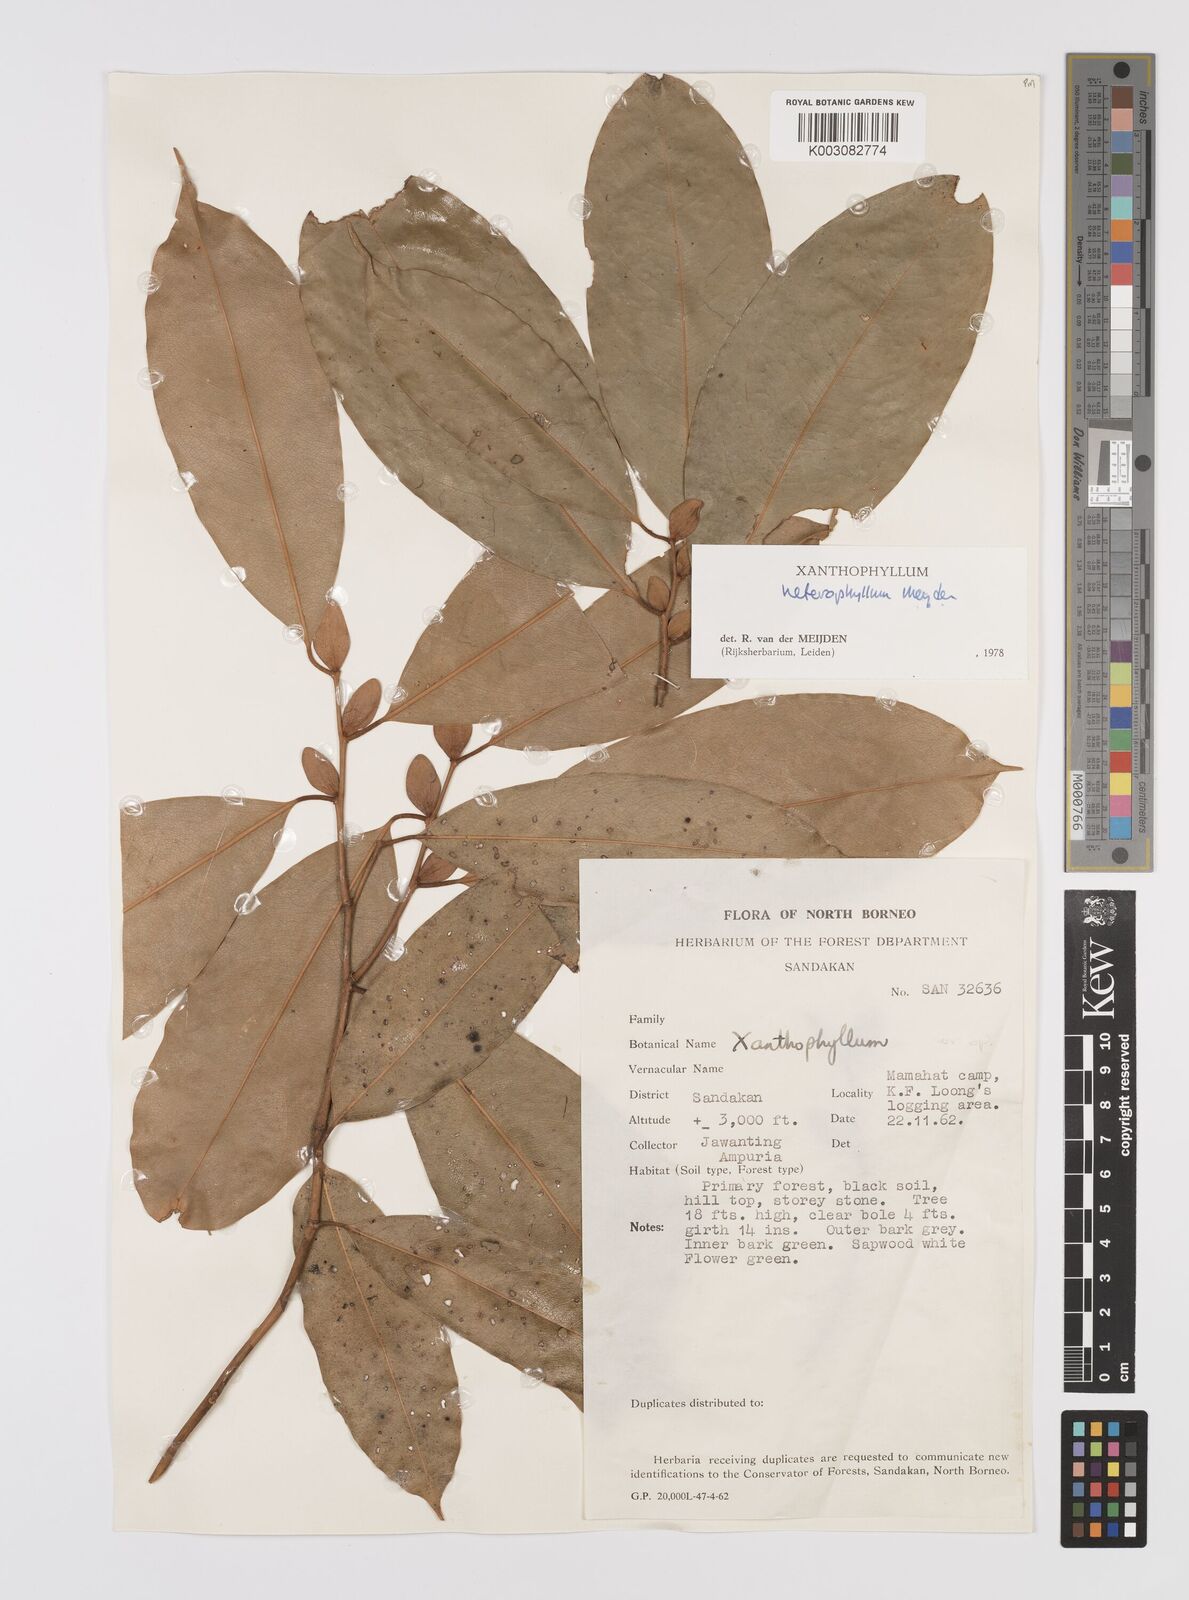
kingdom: Plantae
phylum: Tracheophyta
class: Magnoliopsida
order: Fabales
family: Polygalaceae
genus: Xanthophyllum
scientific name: Xanthophyllum heterophyllum
